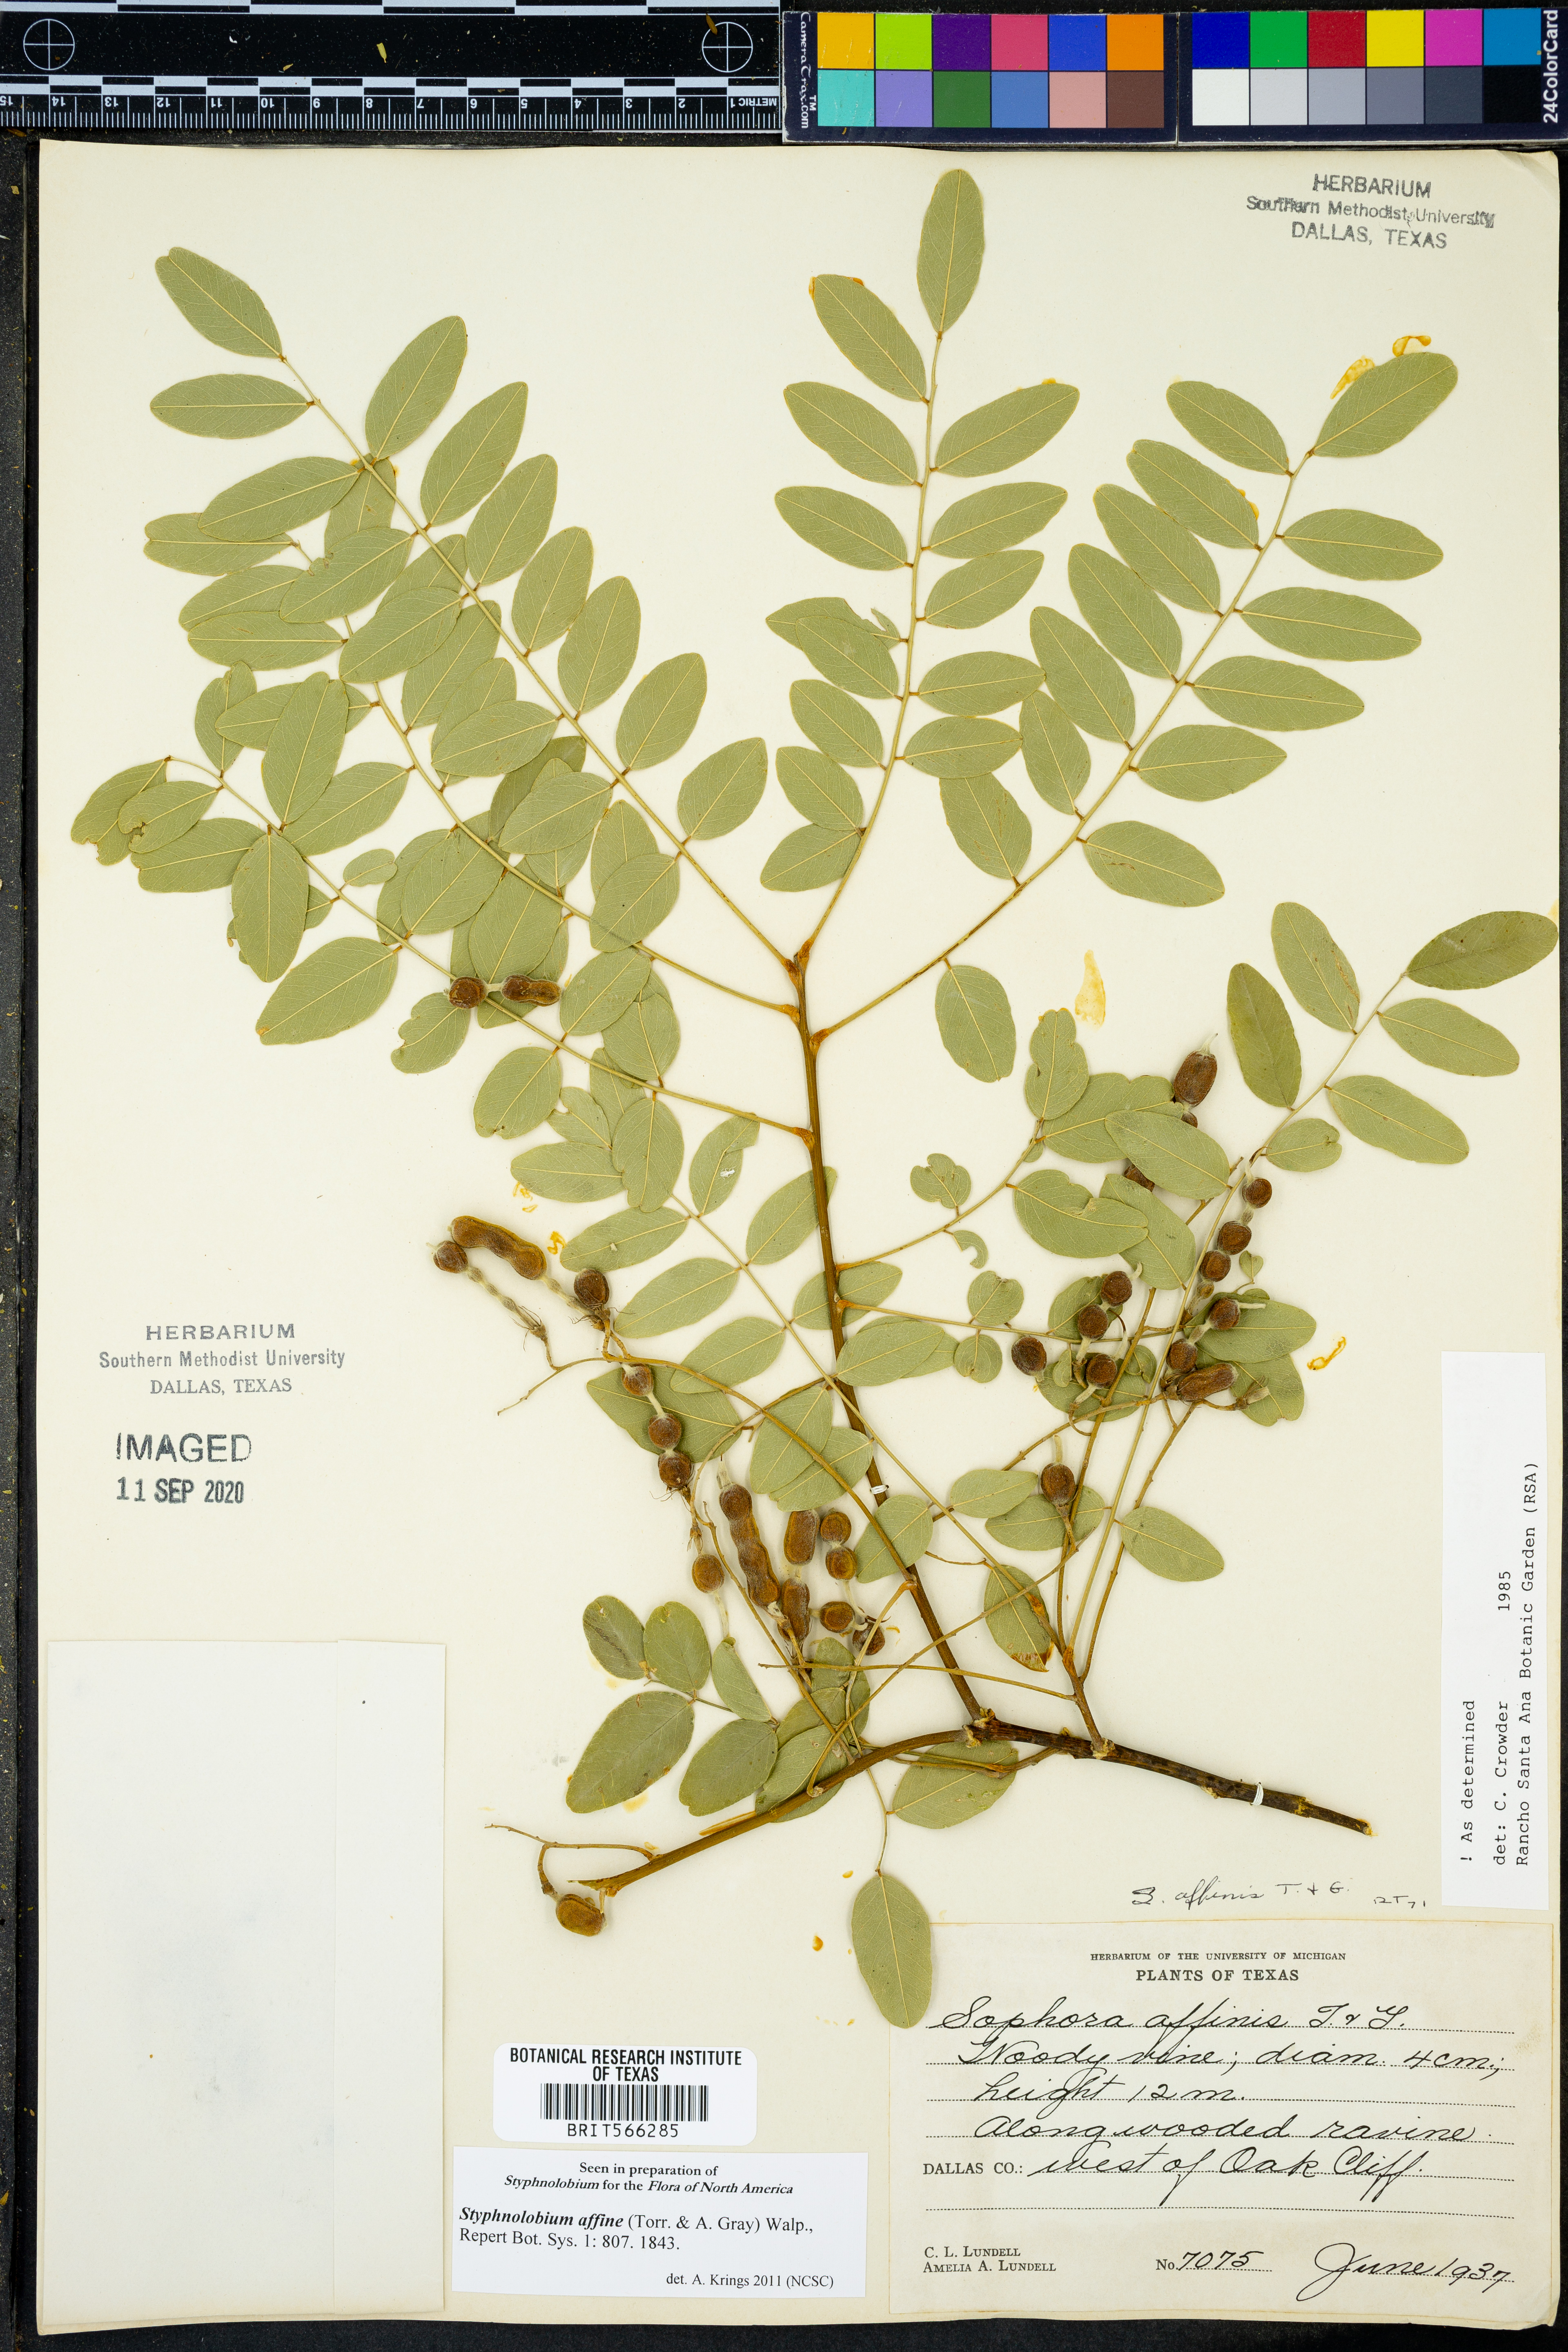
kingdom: Plantae
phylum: Tracheophyta
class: Magnoliopsida
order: Fabales
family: Fabaceae
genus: Styphnolobium
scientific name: Styphnolobium affine
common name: Texas sophora
